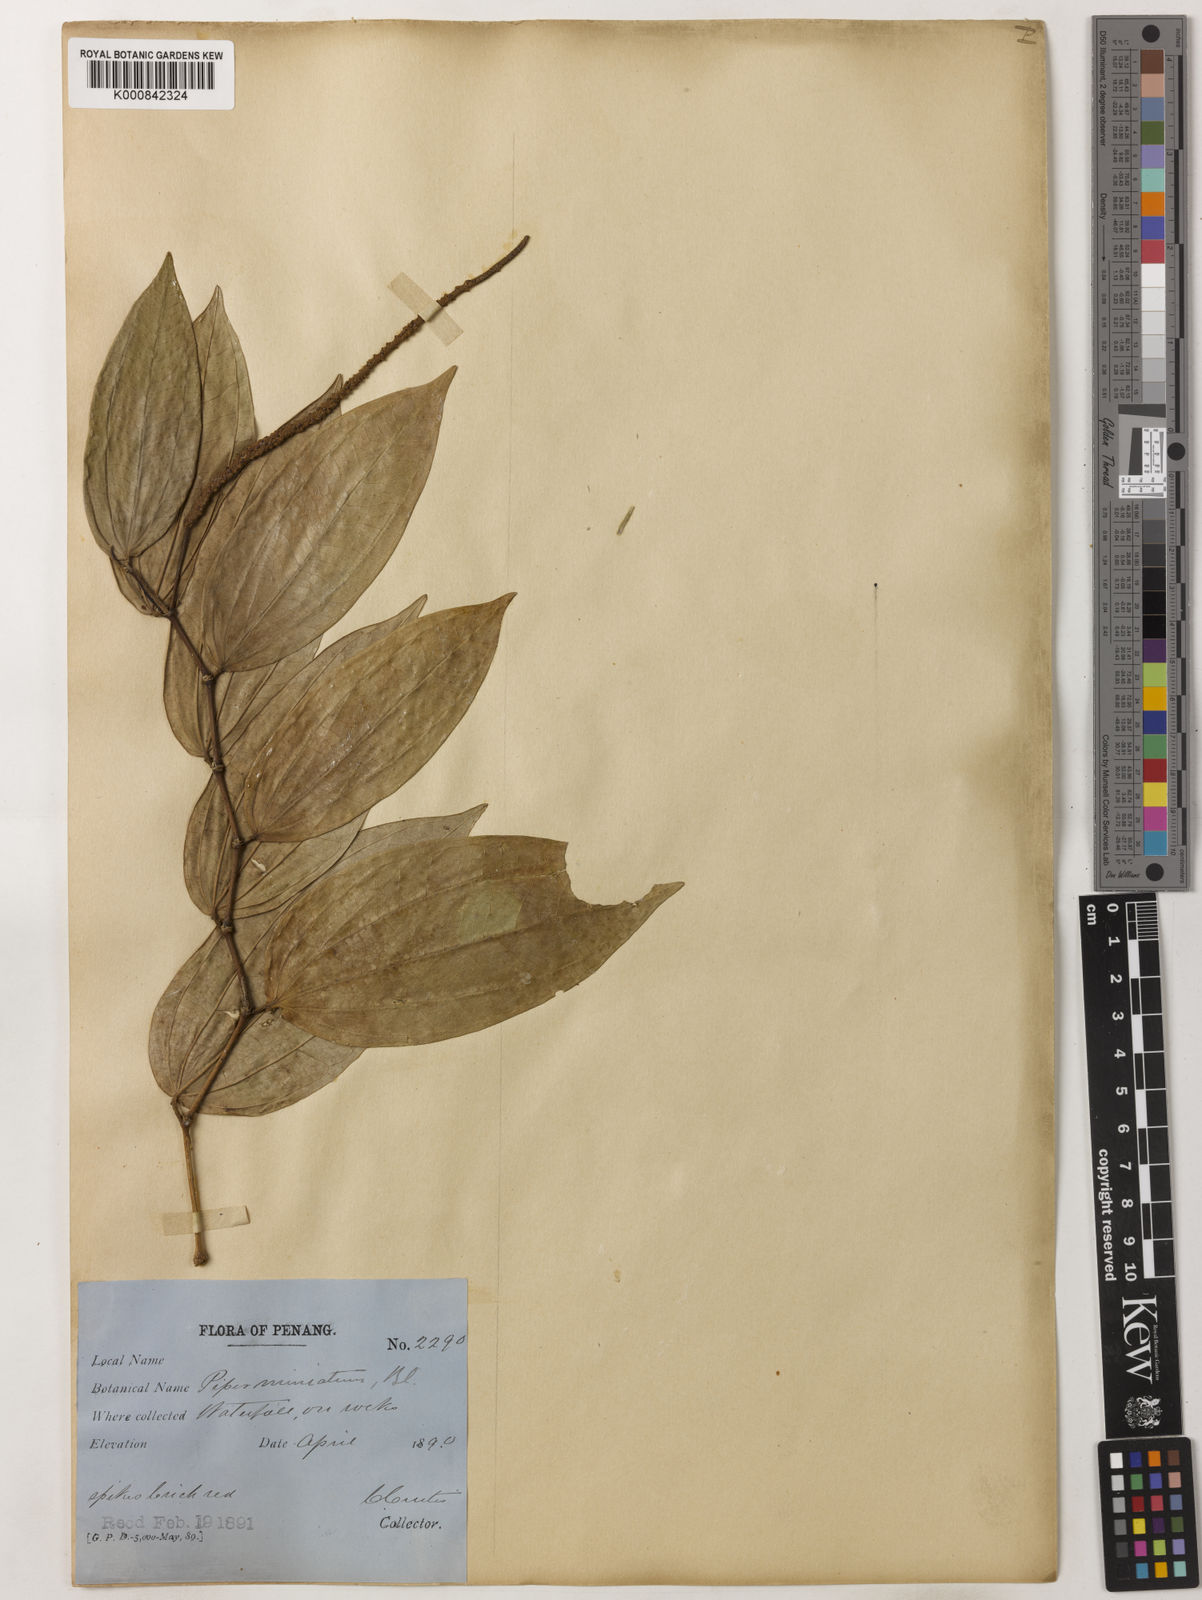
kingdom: Plantae
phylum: Tracheophyta
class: Magnoliopsida
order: Piperales
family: Piperaceae
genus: Piper
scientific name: Piper macropiper
